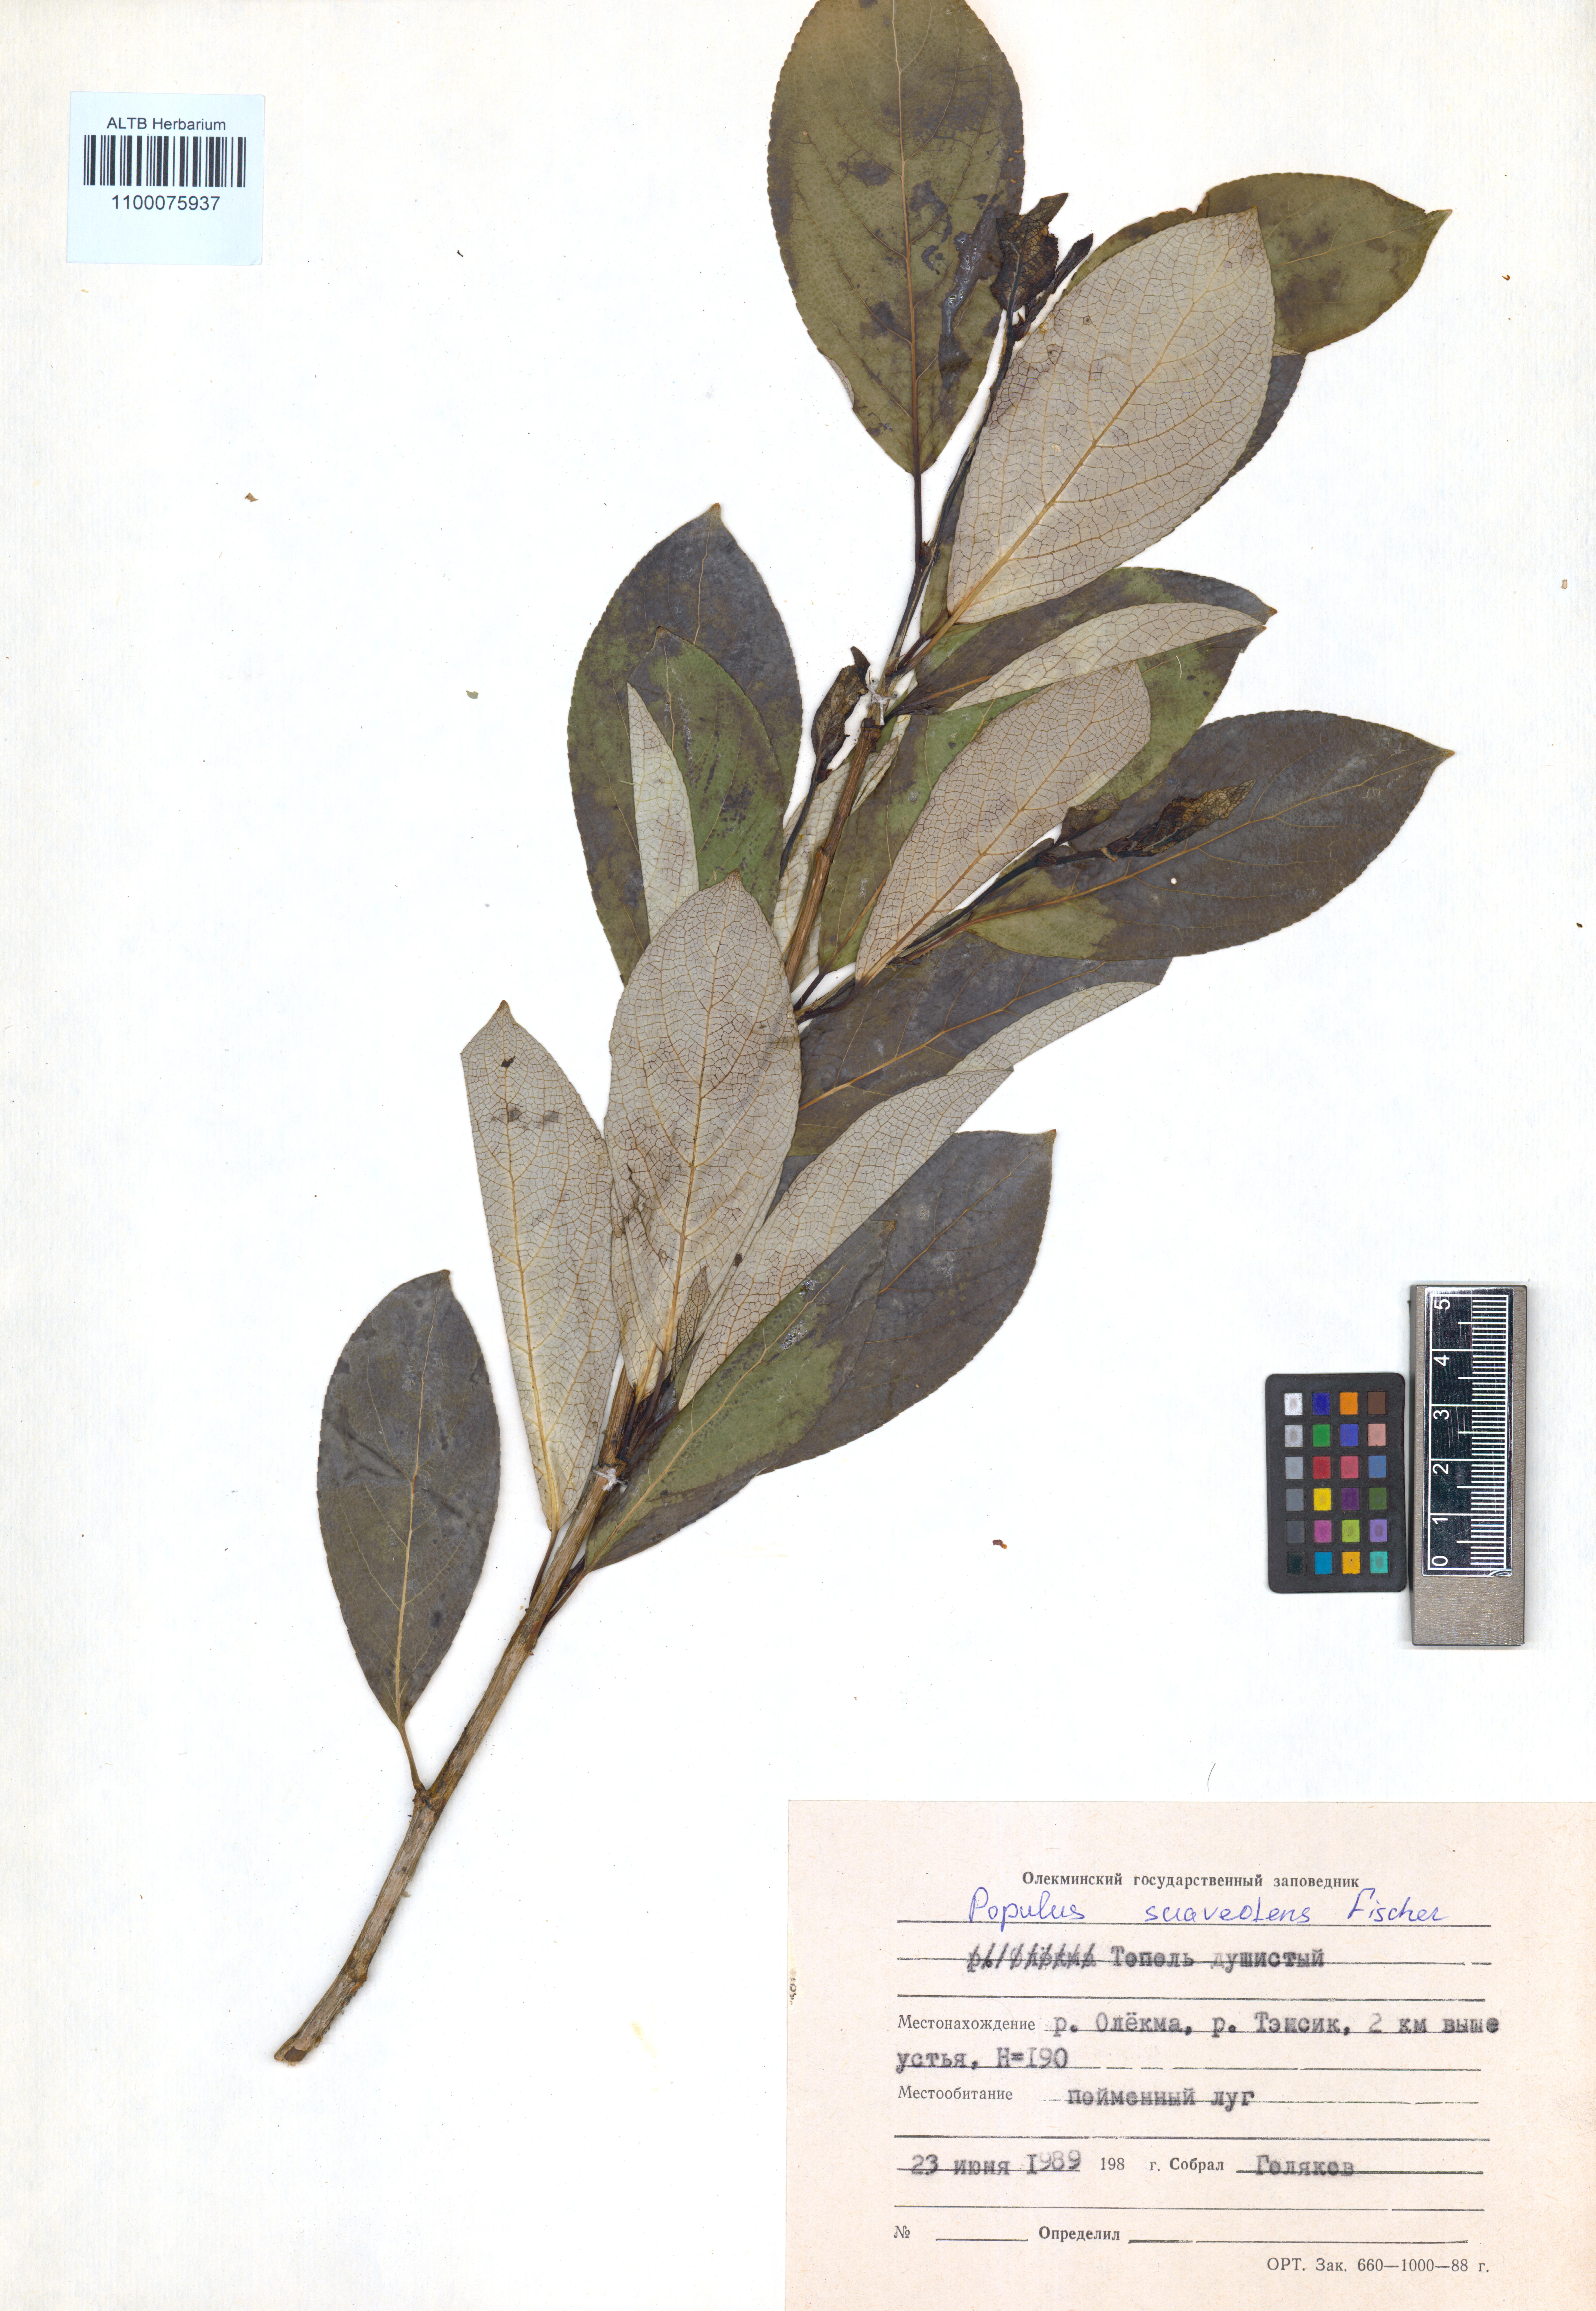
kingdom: Plantae
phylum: Tracheophyta
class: Magnoliopsida
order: Malpighiales
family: Salicaceae
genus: Populus
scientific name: Populus suaveolens
